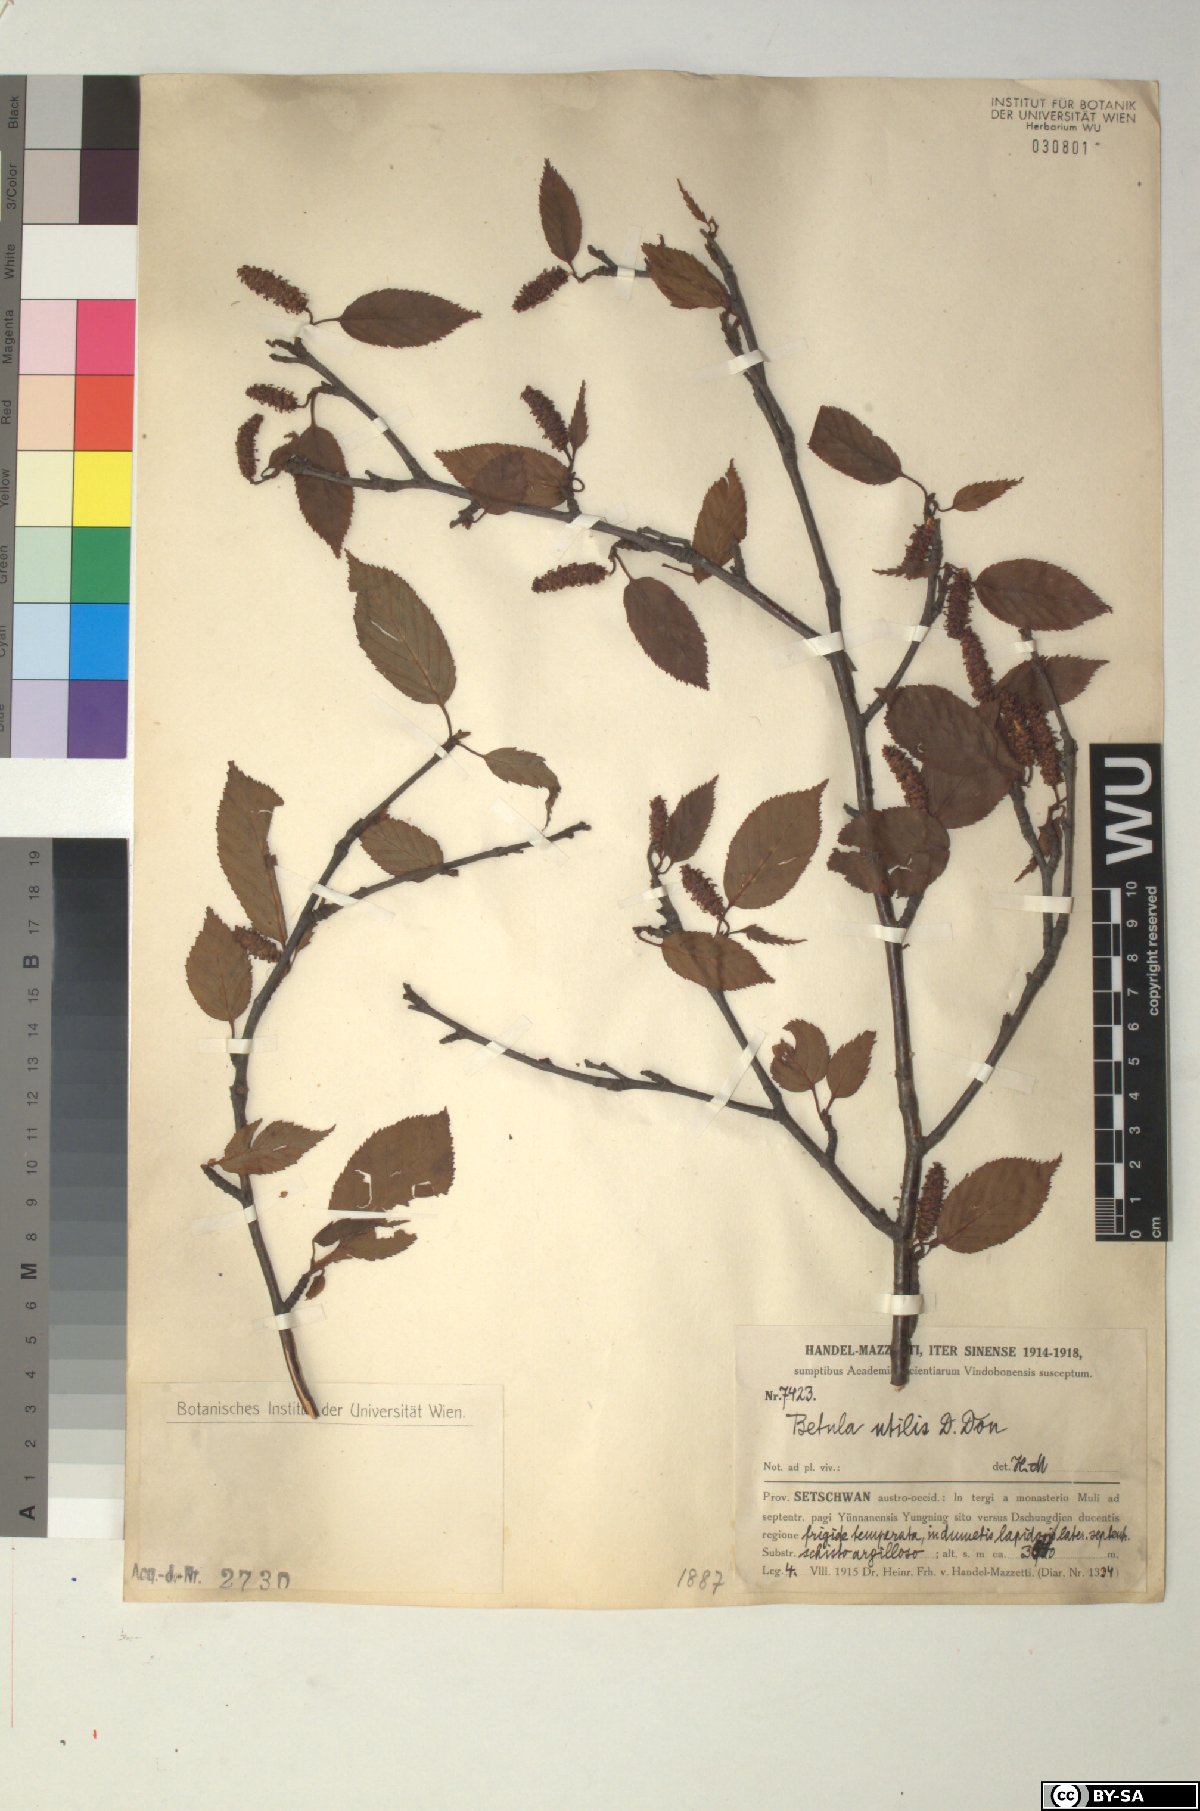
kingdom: Plantae
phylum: Tracheophyta
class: Magnoliopsida
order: Fagales
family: Betulaceae
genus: Betula
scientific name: Betula utilis
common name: Himalayan birch
